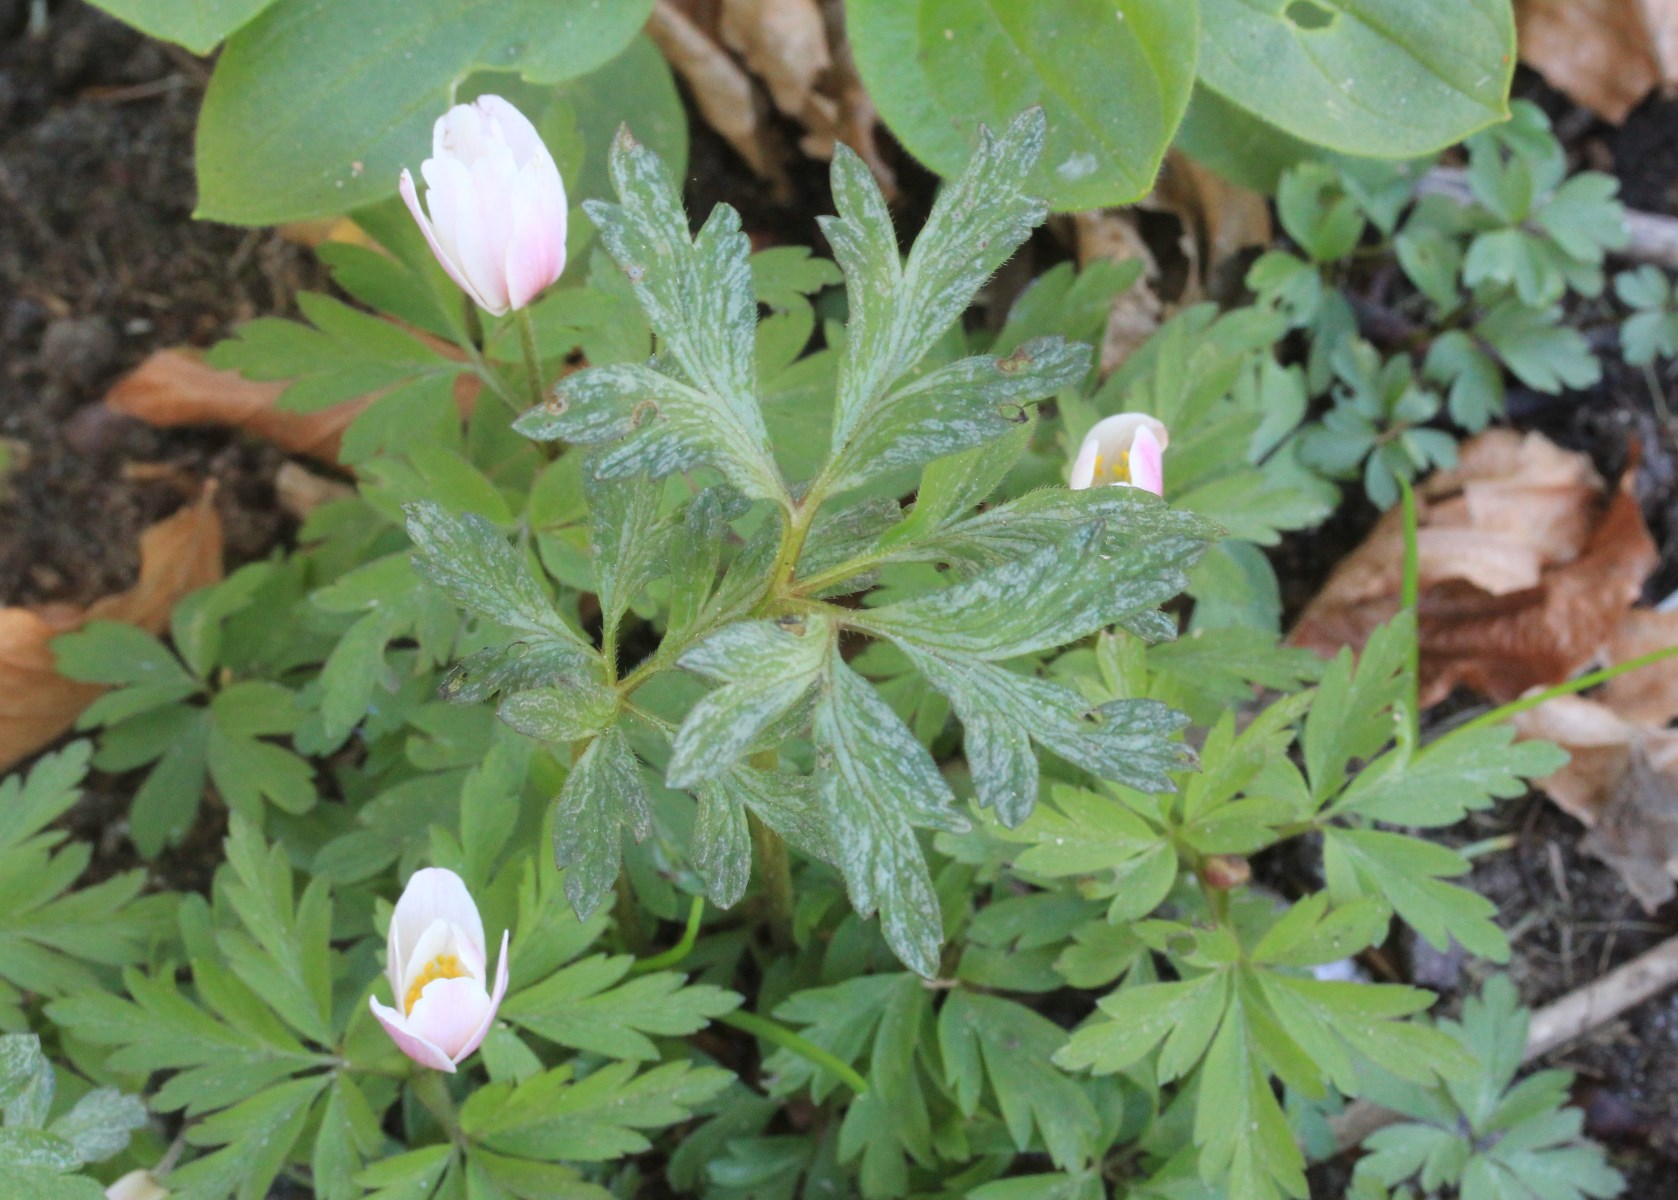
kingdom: Fungi
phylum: Basidiomycota
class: Pucciniomycetes
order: Pucciniales
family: Tranzscheliaceae
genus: Tranzschelia
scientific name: Tranzschelia anemones
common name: anemone-knæksporerust
